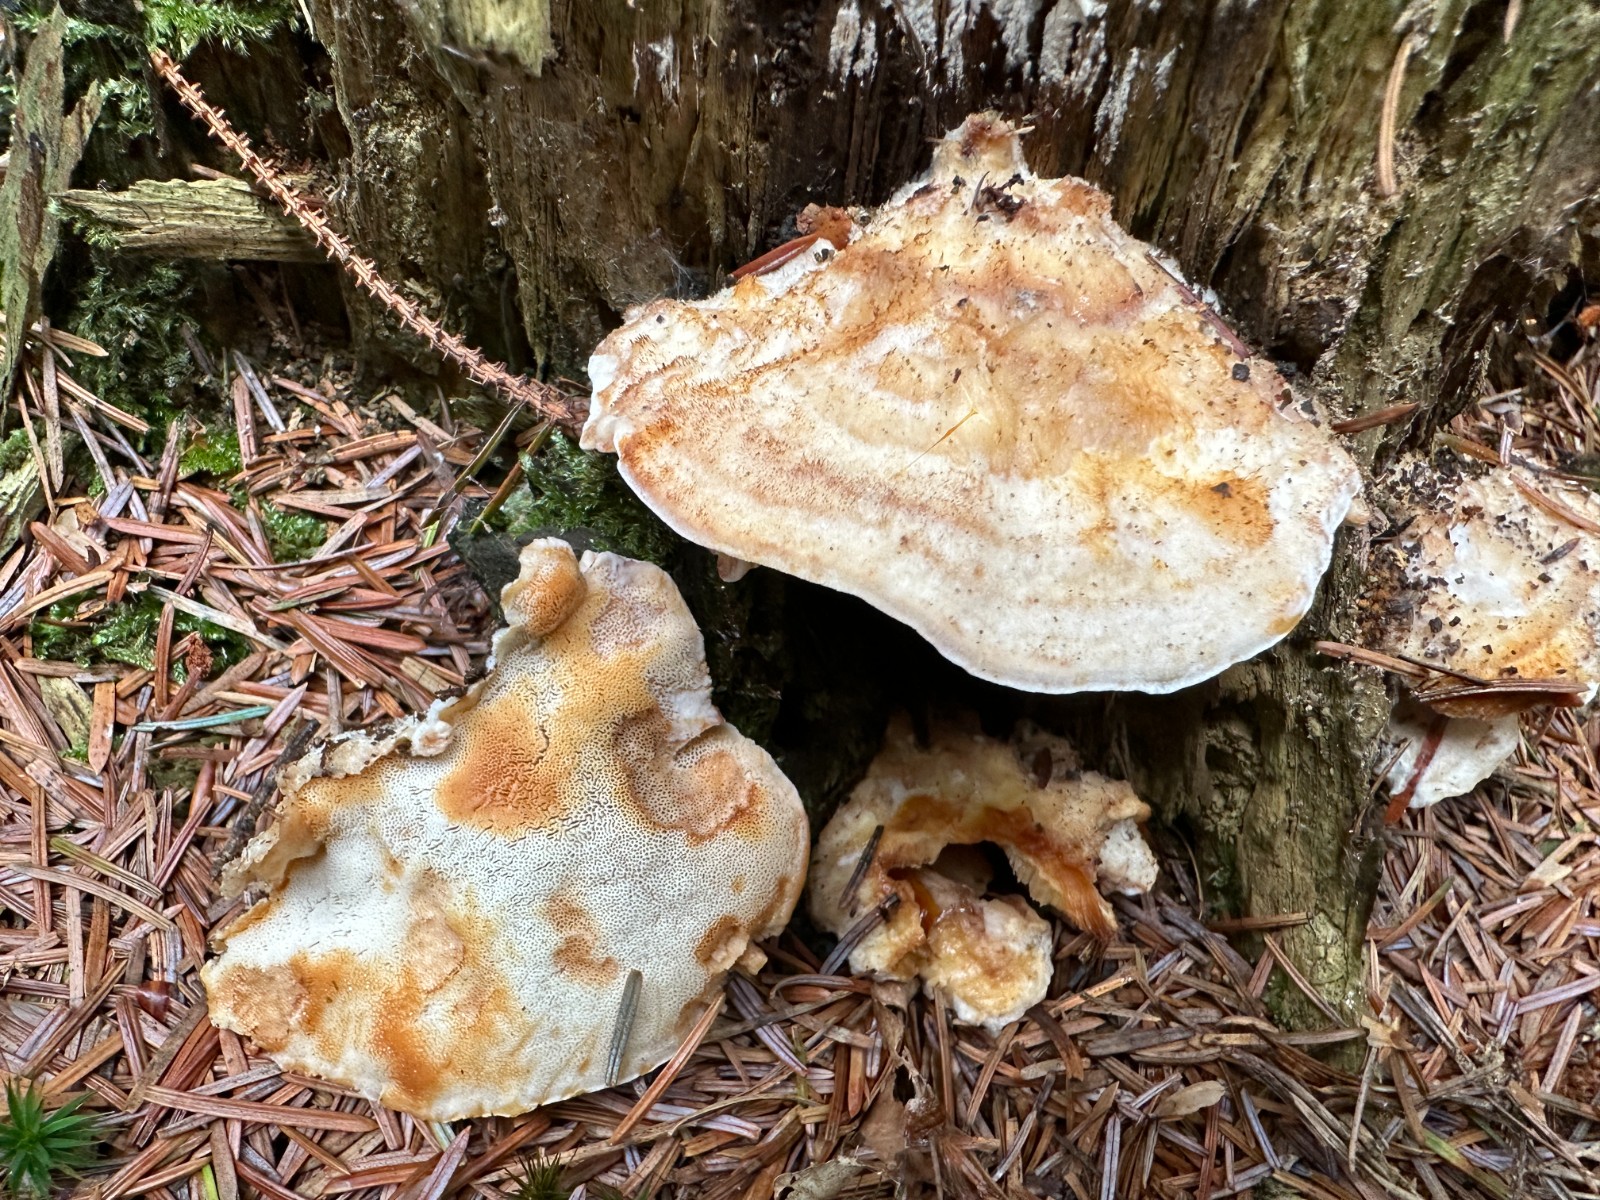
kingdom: Fungi
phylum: Basidiomycota
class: Agaricomycetes
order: Polyporales
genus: Fuscopostia
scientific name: Fuscopostia fragilis
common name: brunende kødporesvamp
